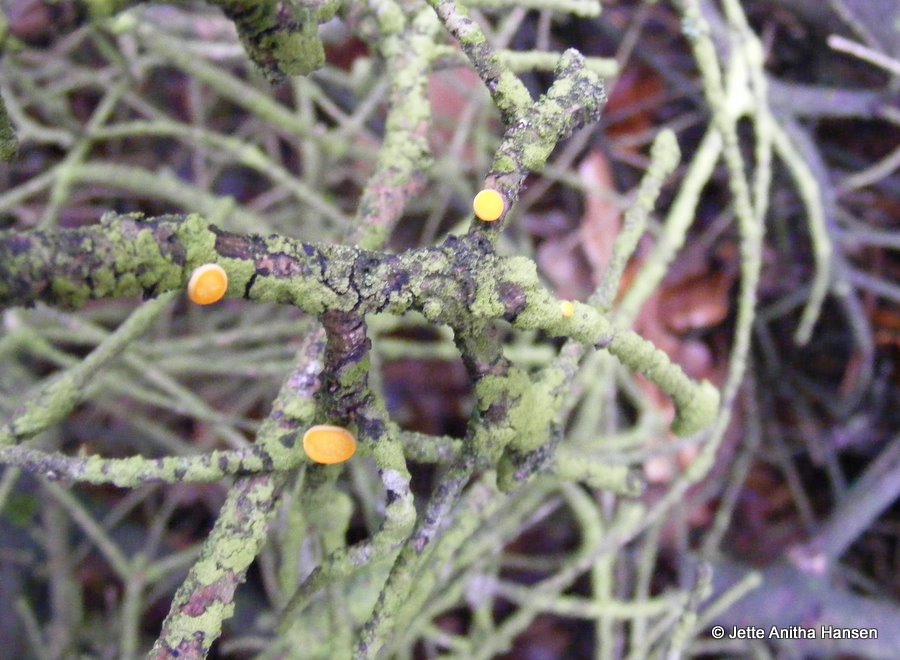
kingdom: Fungi
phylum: Ascomycota
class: Pezizomycetes
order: Pezizales
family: Sarcoscyphaceae
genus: Pithya
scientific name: Pithya vulgaris
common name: stor dukatbæger
